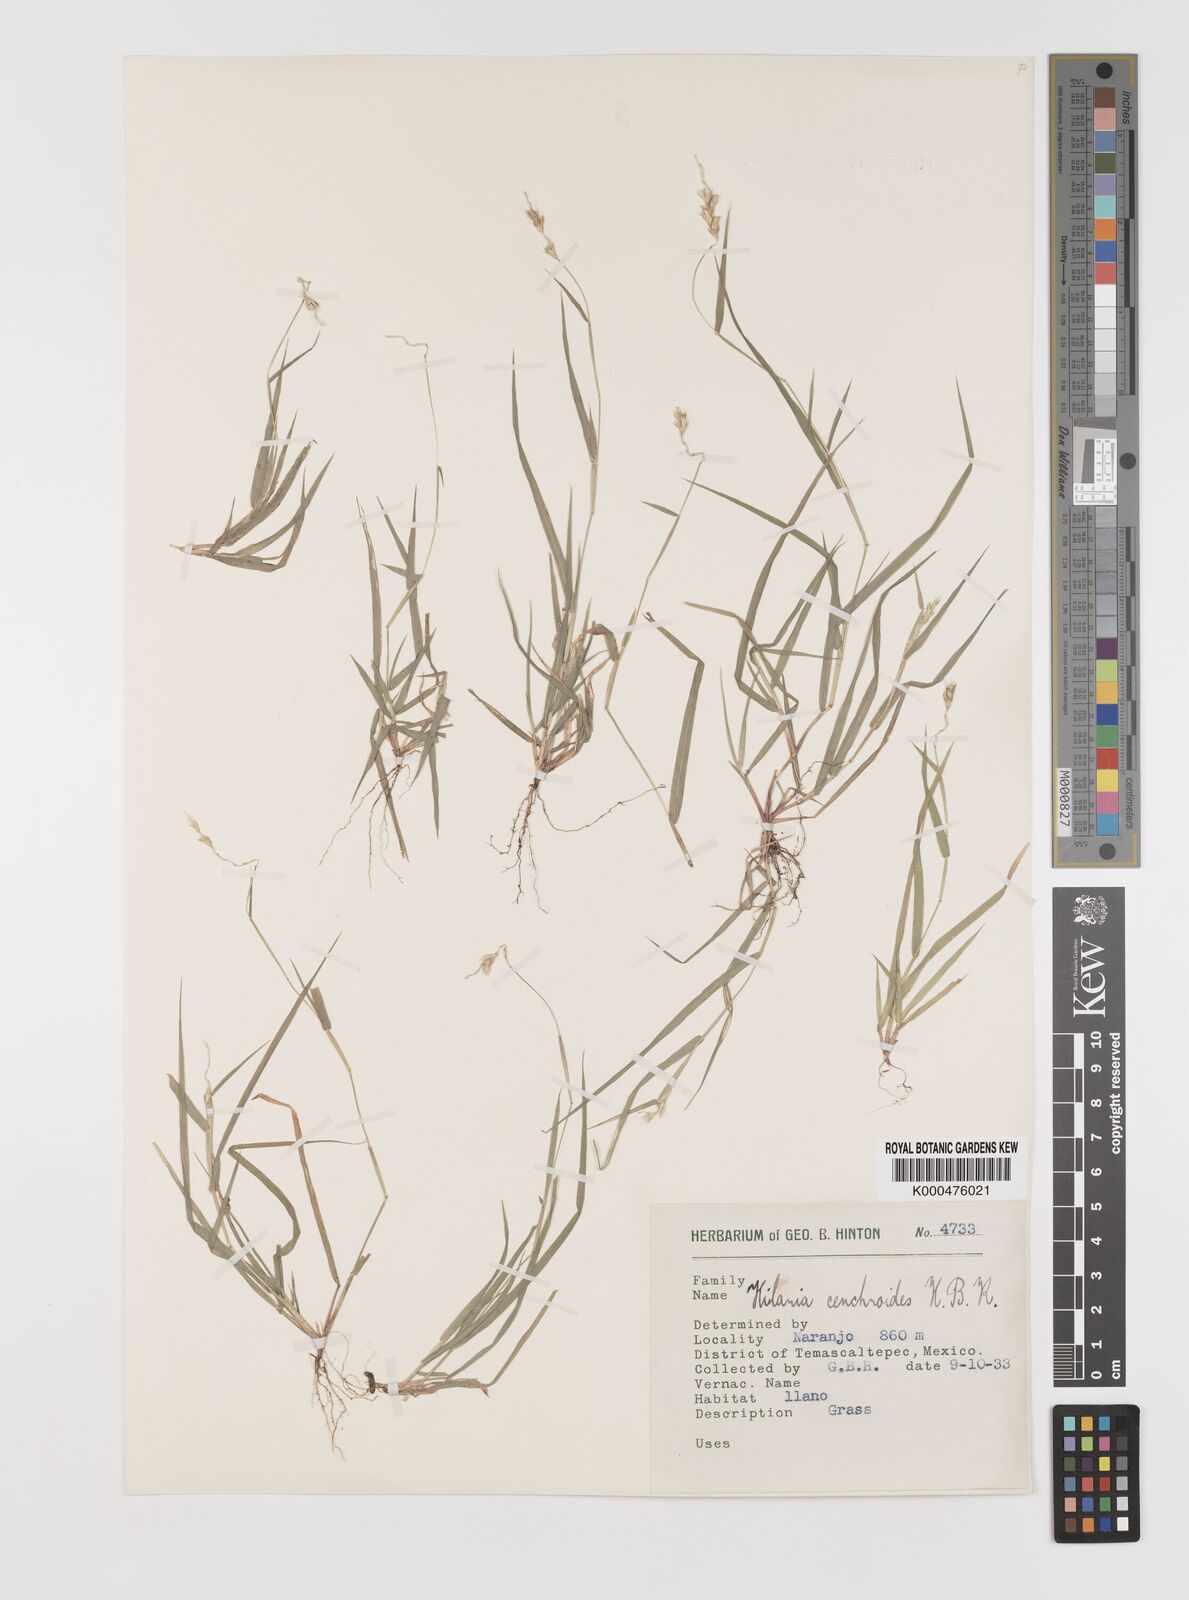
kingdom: Plantae
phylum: Tracheophyta
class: Liliopsida
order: Poales
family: Poaceae
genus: Hilaria
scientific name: Hilaria swallenii
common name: Swallen's curly-mesquite
